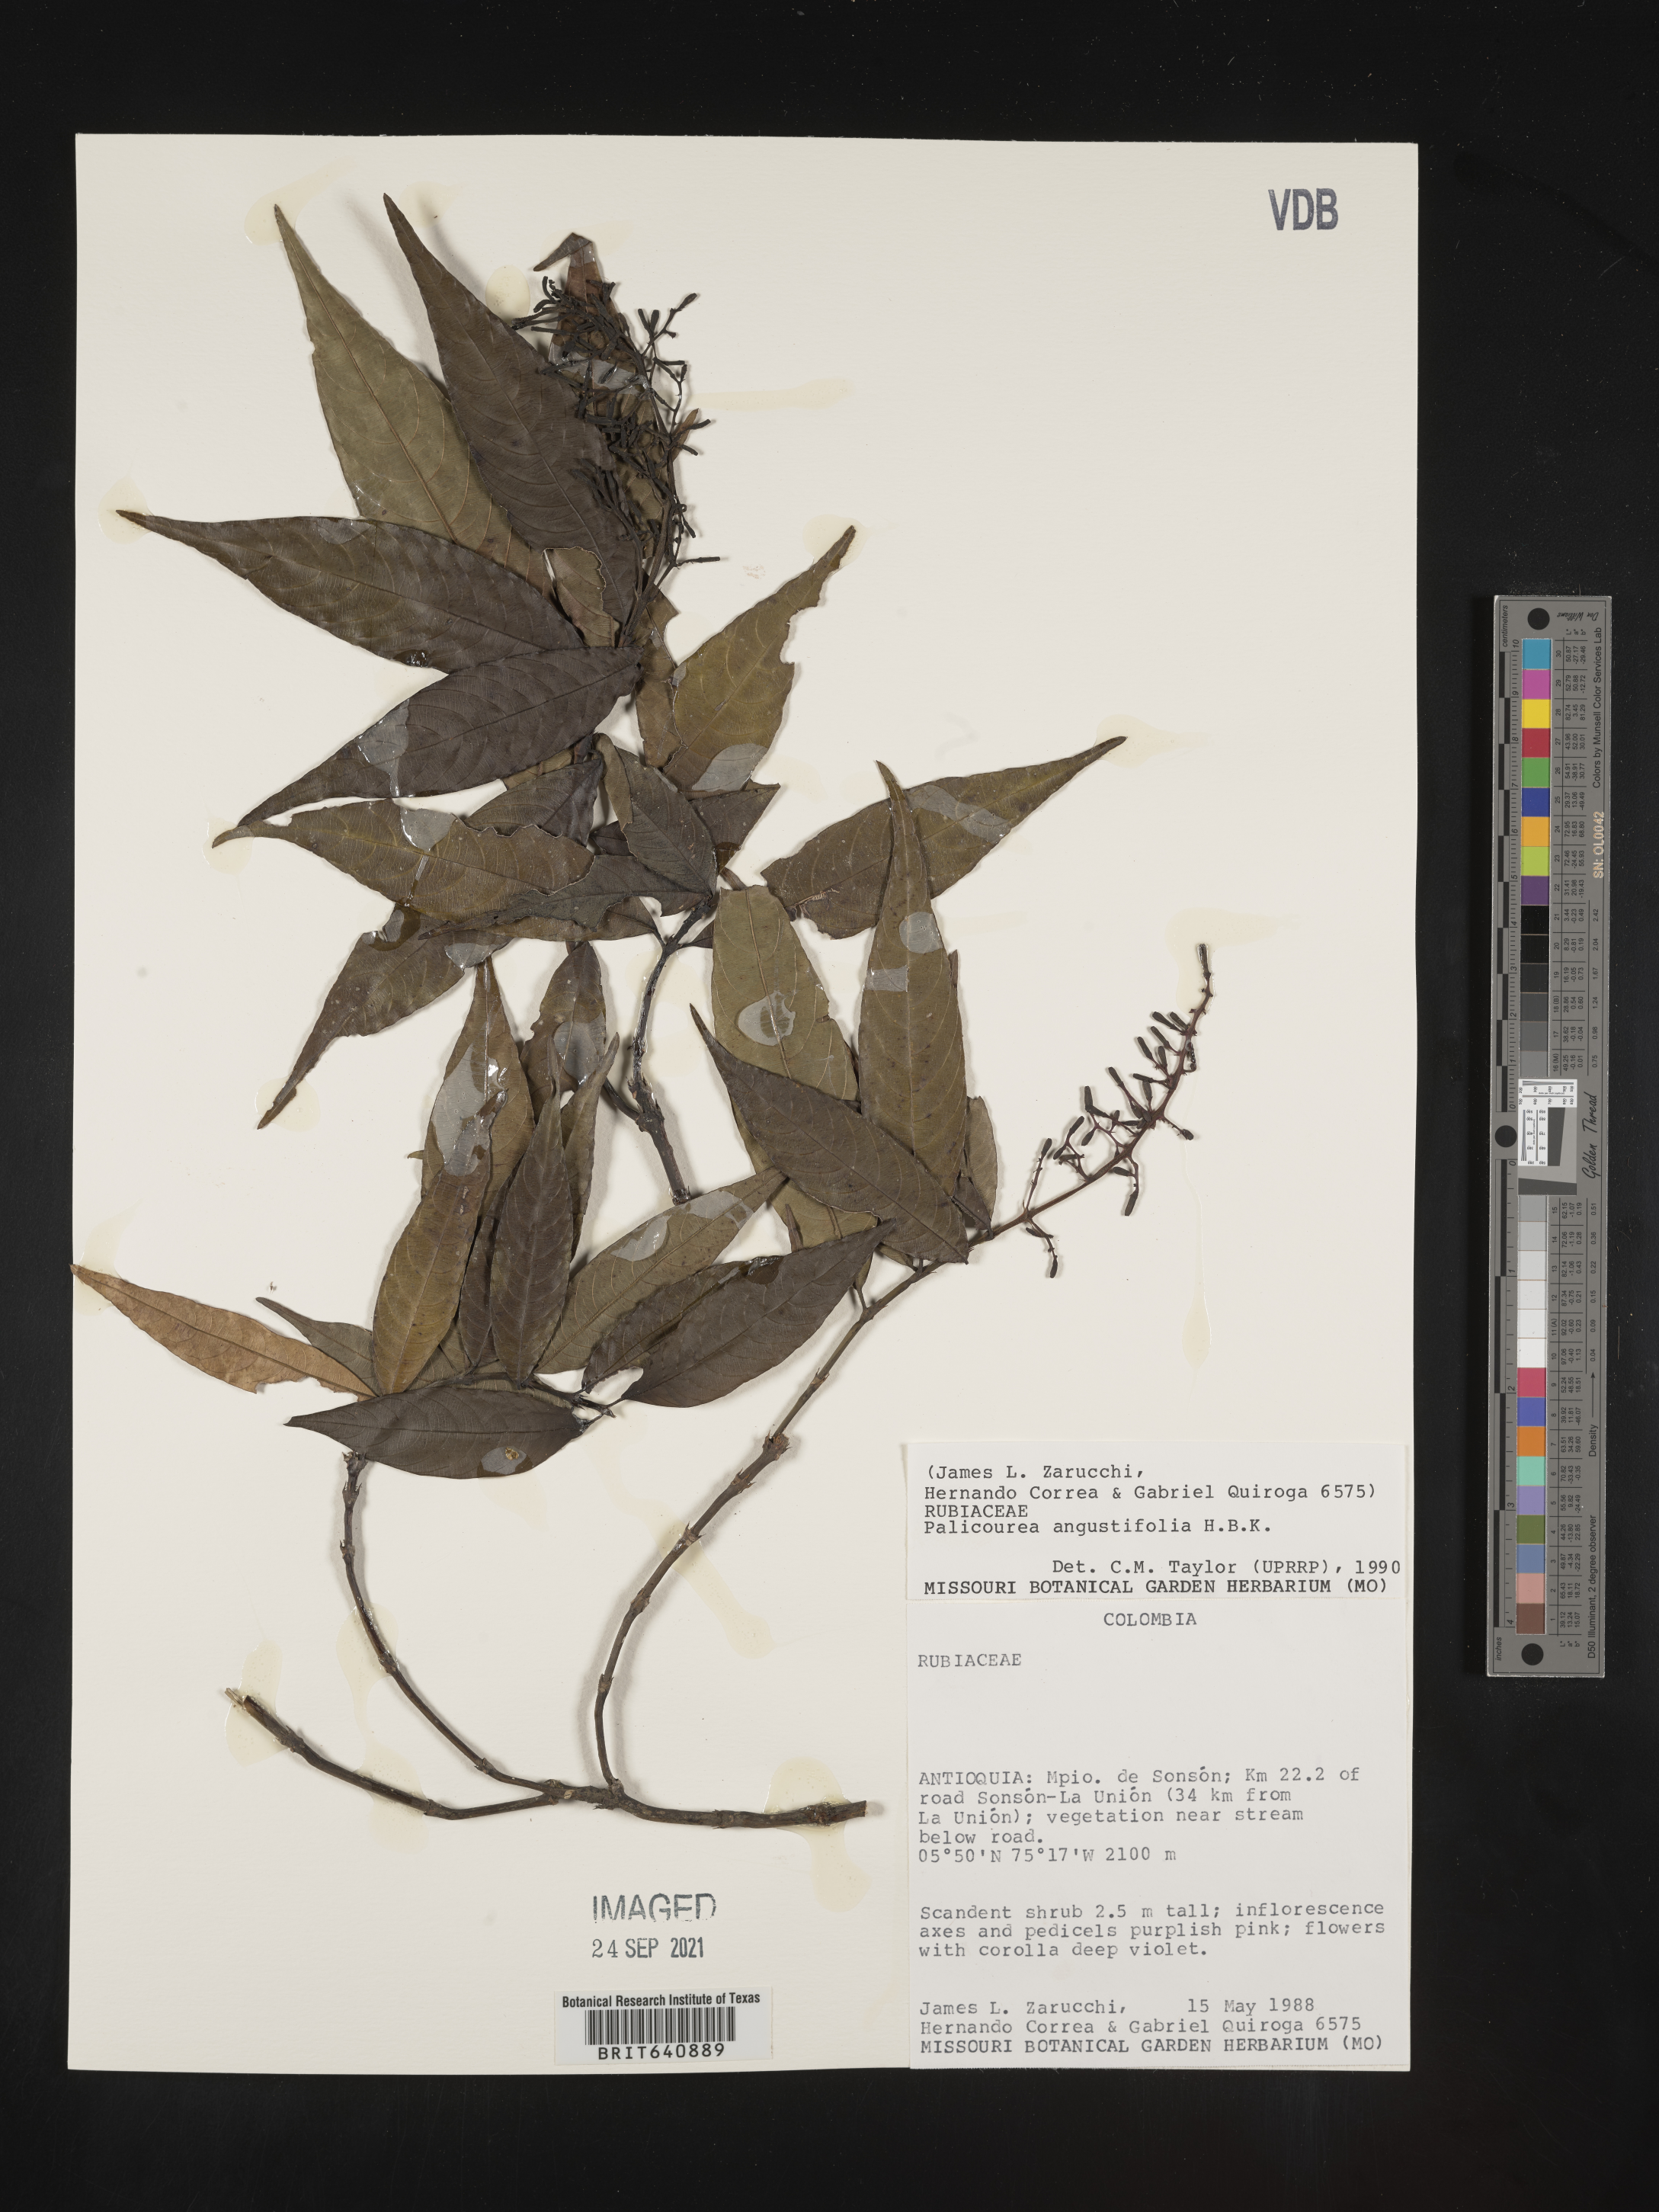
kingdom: Plantae
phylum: Tracheophyta
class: Magnoliopsida
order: Gentianales
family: Rubiaceae
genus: Palicourea
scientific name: Palicourea
